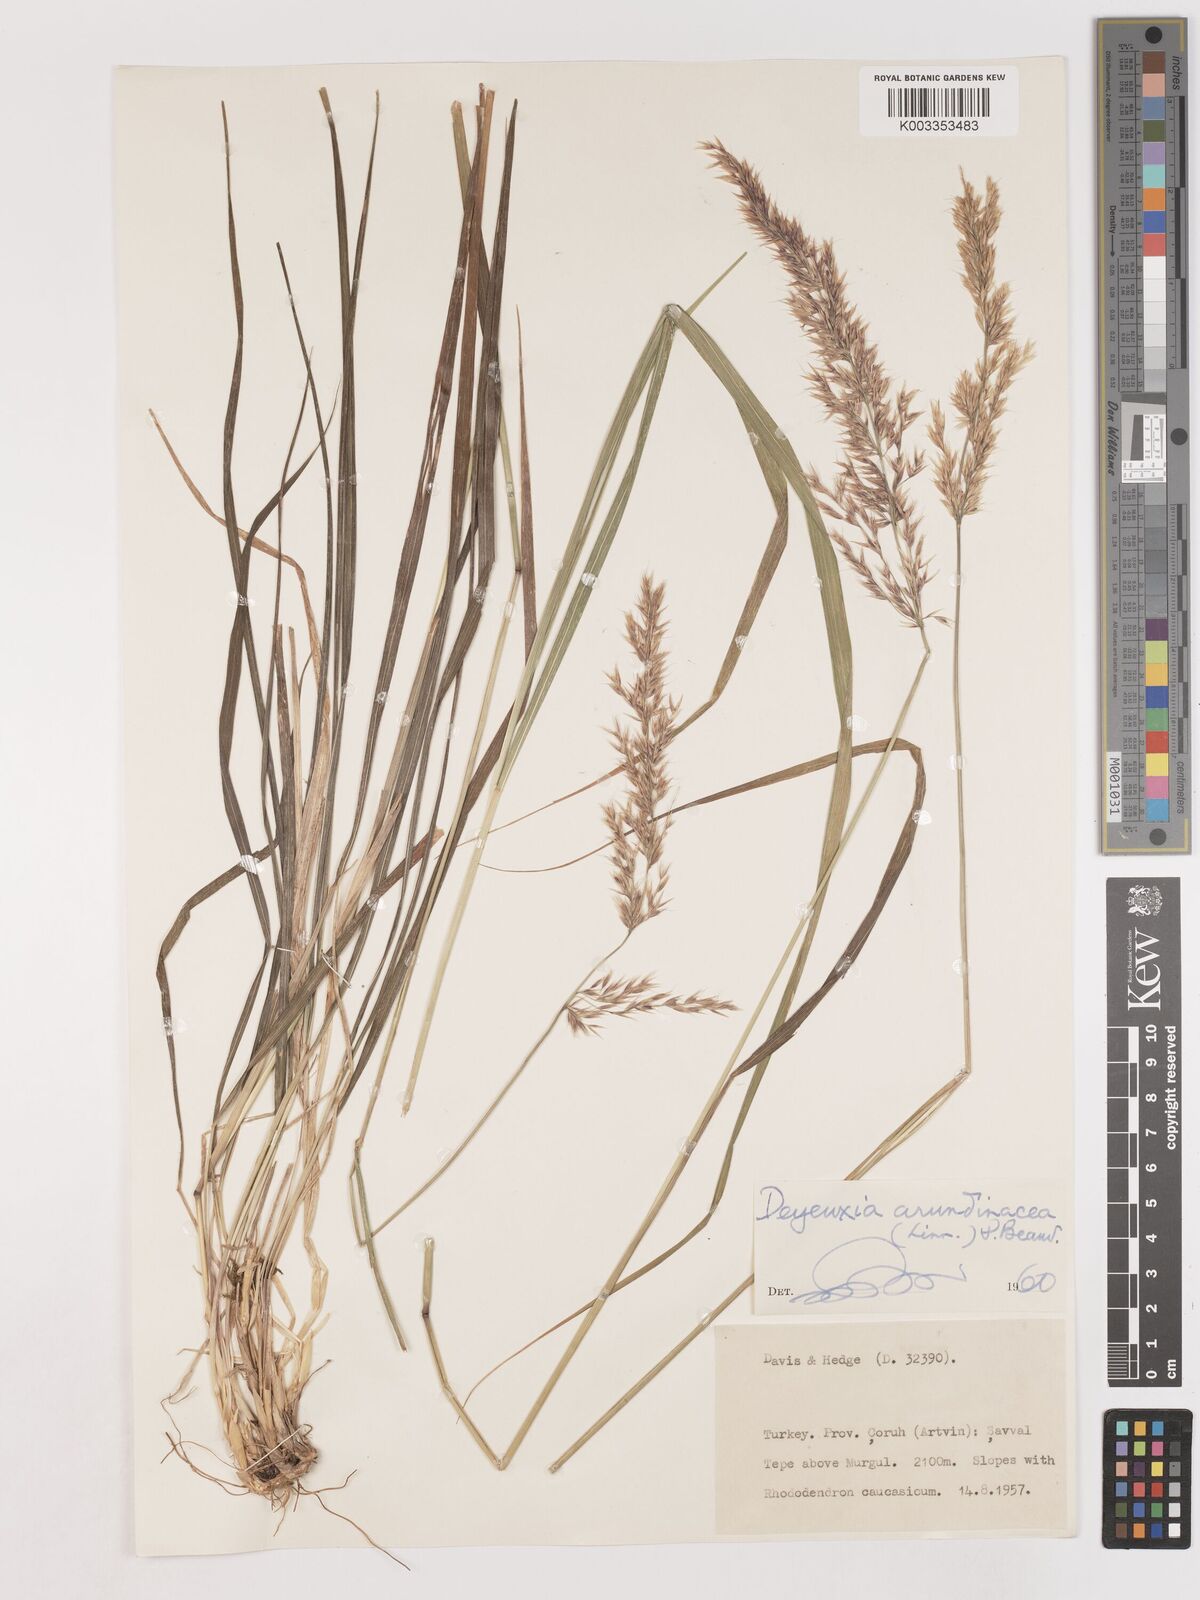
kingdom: Plantae
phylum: Tracheophyta
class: Liliopsida
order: Poales
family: Poaceae
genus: Calamagrostis
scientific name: Calamagrostis
